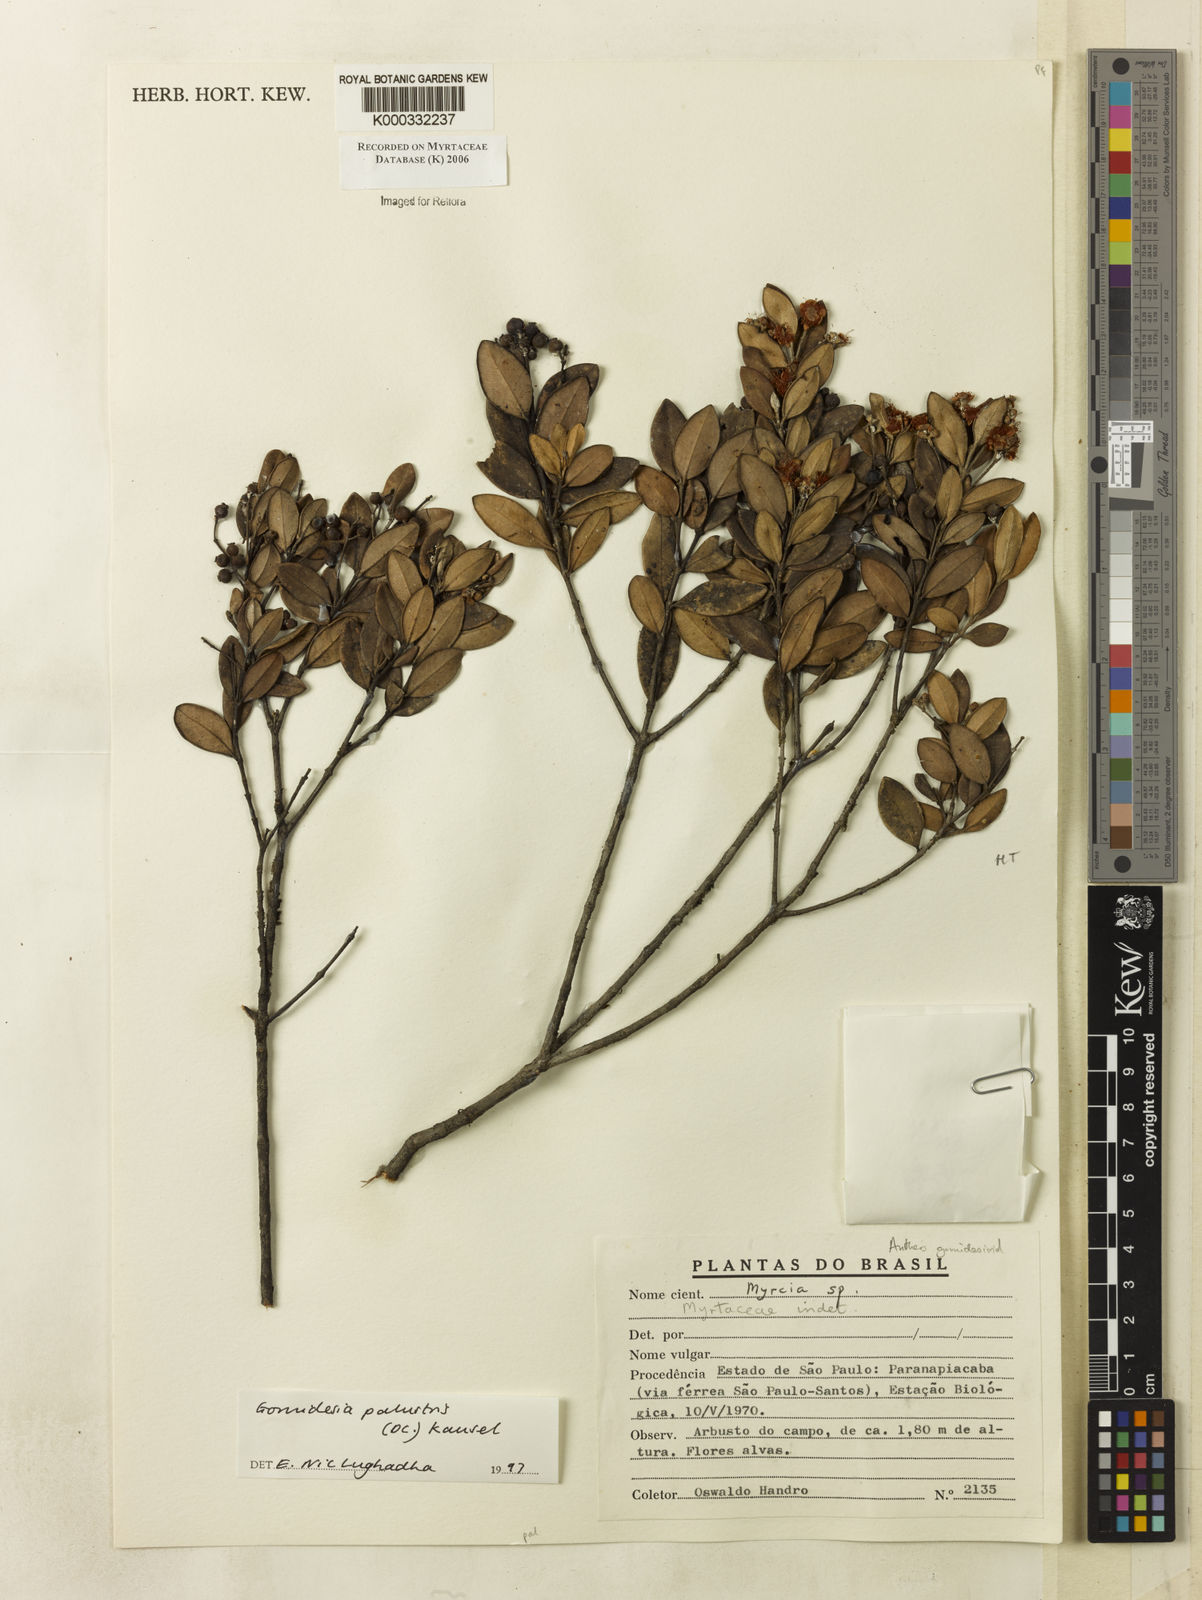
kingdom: Plantae
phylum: Tracheophyta
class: Magnoliopsida
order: Myrtales
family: Myrtaceae
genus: Myrcia
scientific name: Myrcia palustris
